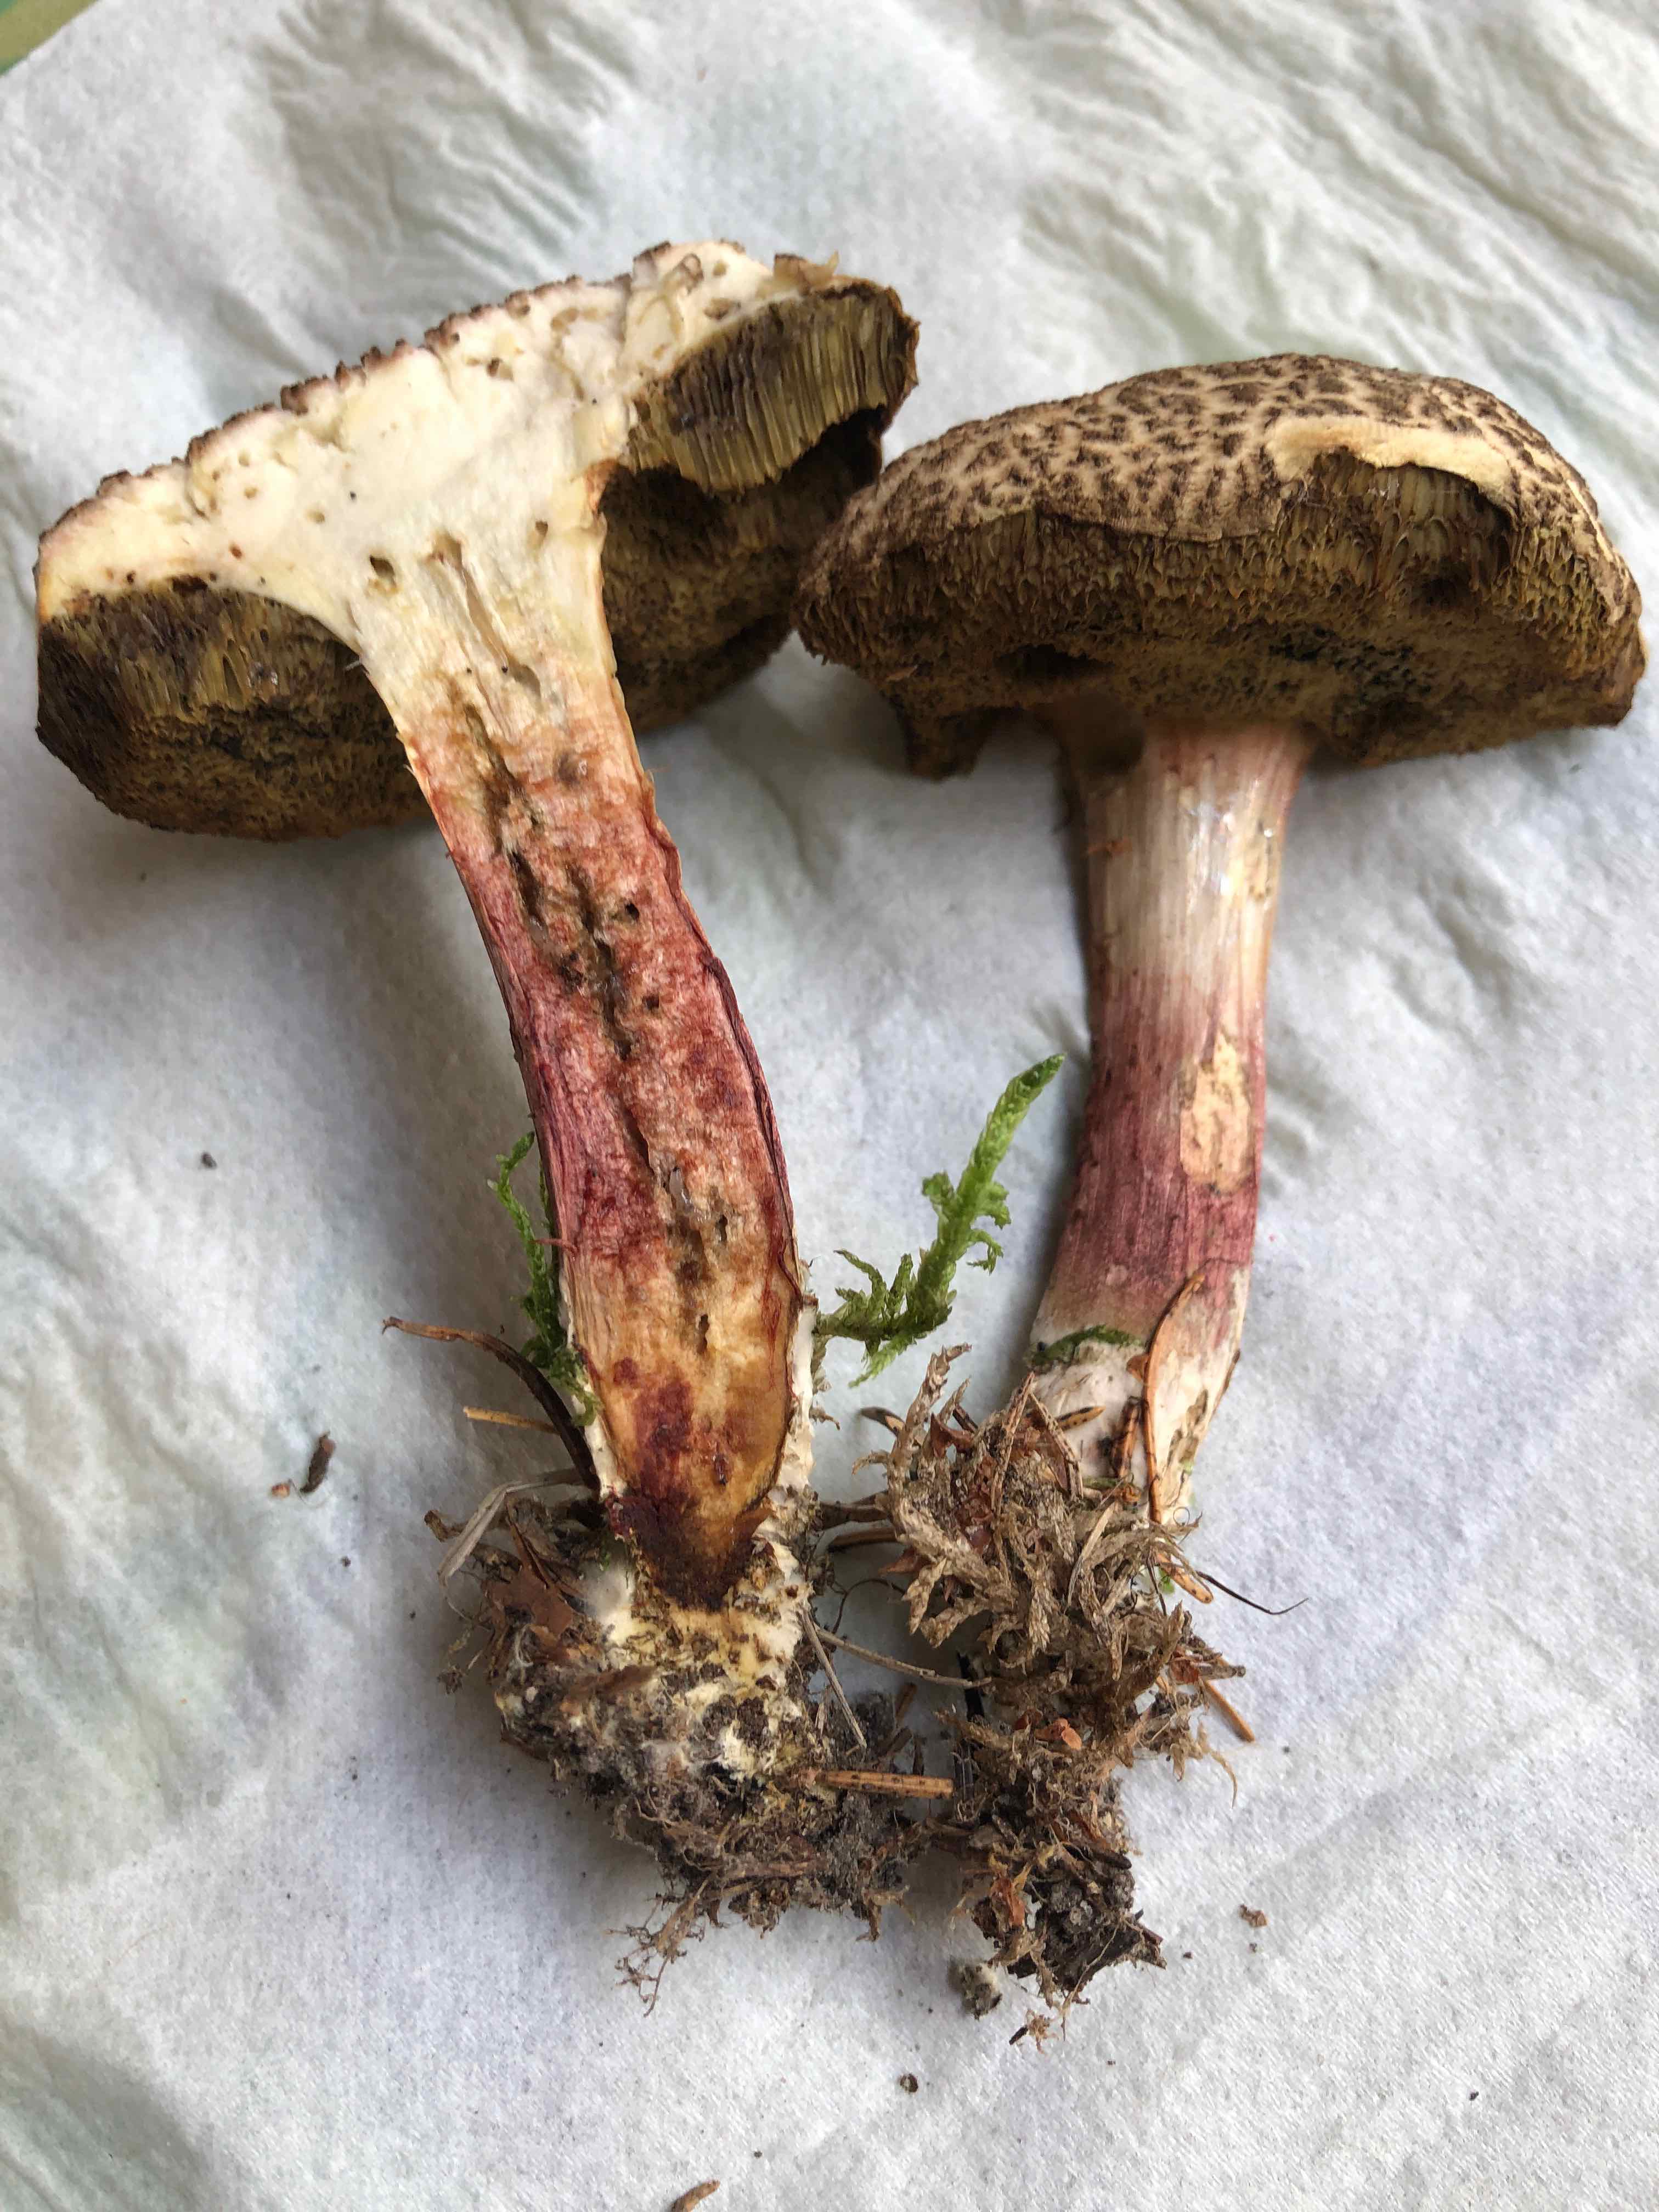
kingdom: Fungi
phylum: Basidiomycota
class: Agaricomycetes
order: Boletales
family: Boletaceae
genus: Xerocomellus
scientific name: Xerocomellus chrysenteron
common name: rødsprukken rørhat
